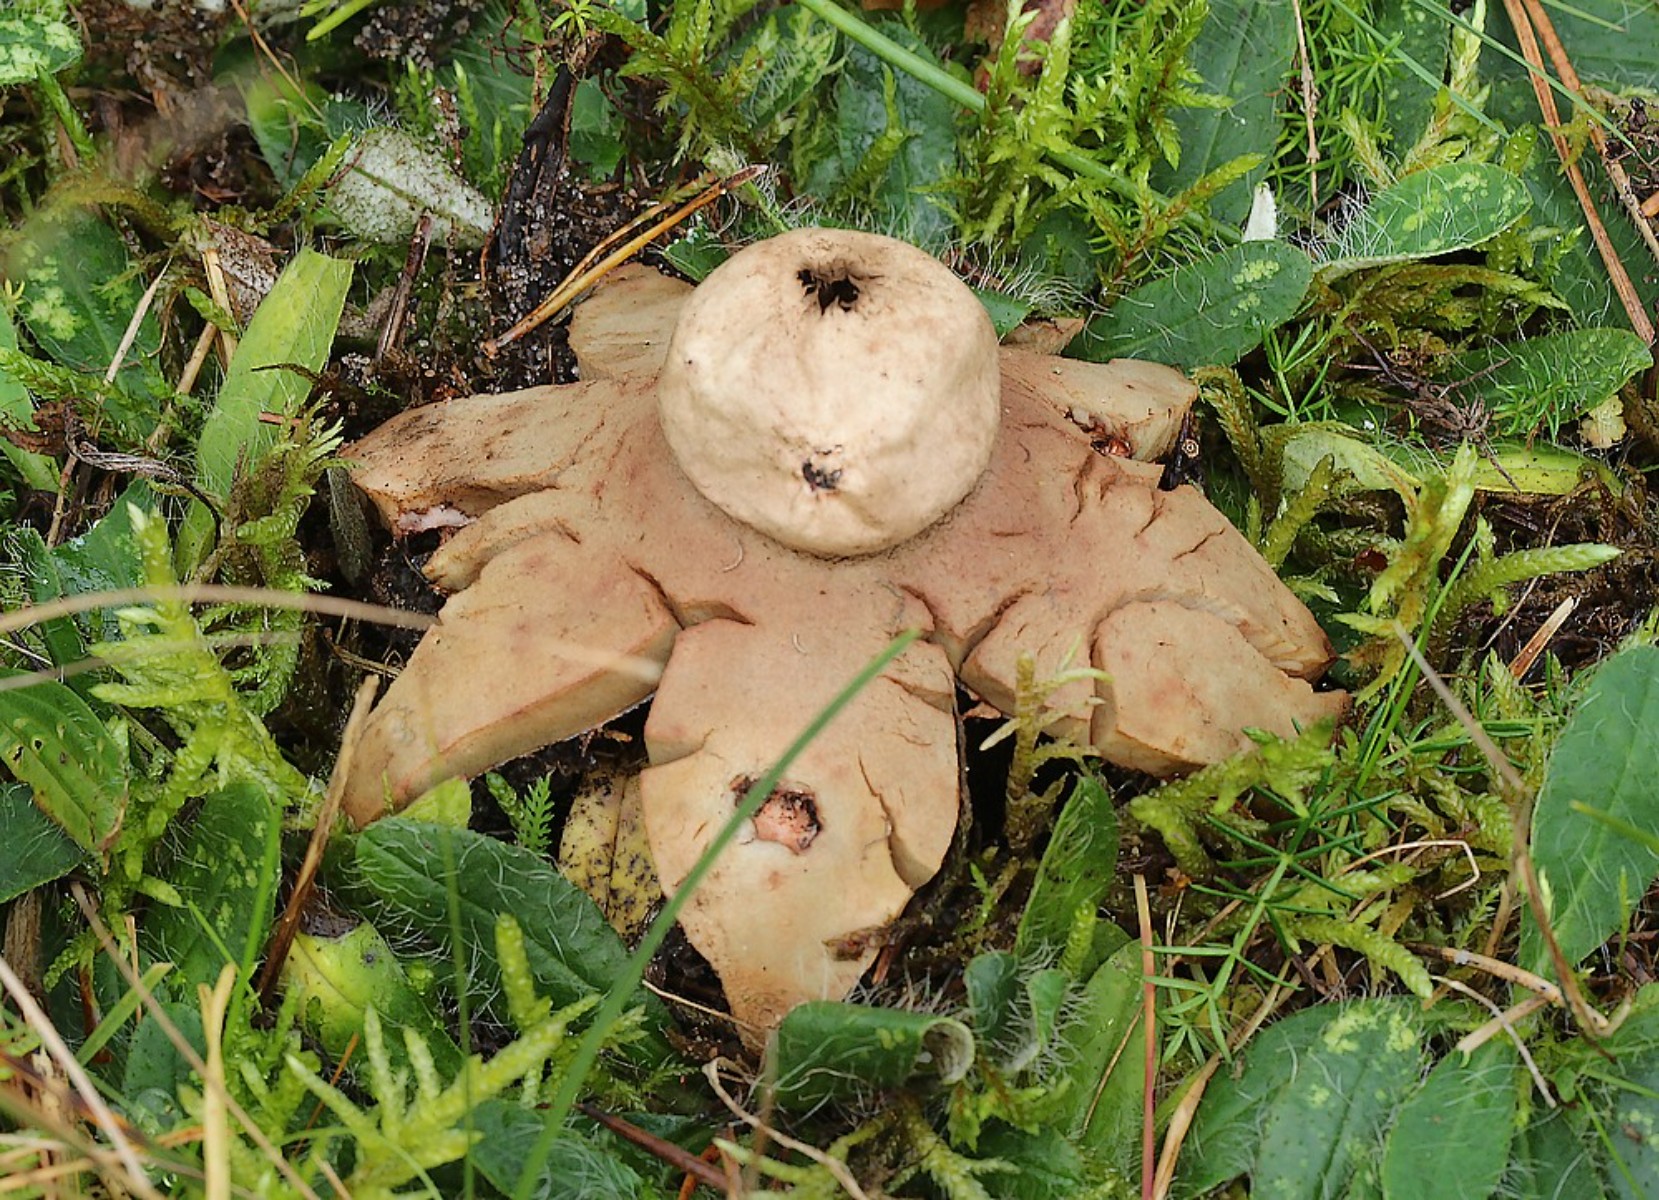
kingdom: Fungi
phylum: Basidiomycota
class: Agaricomycetes
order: Geastrales
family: Geastraceae
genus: Geastrum
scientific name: Geastrum rufescens
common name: kødfarvet stjernebold
